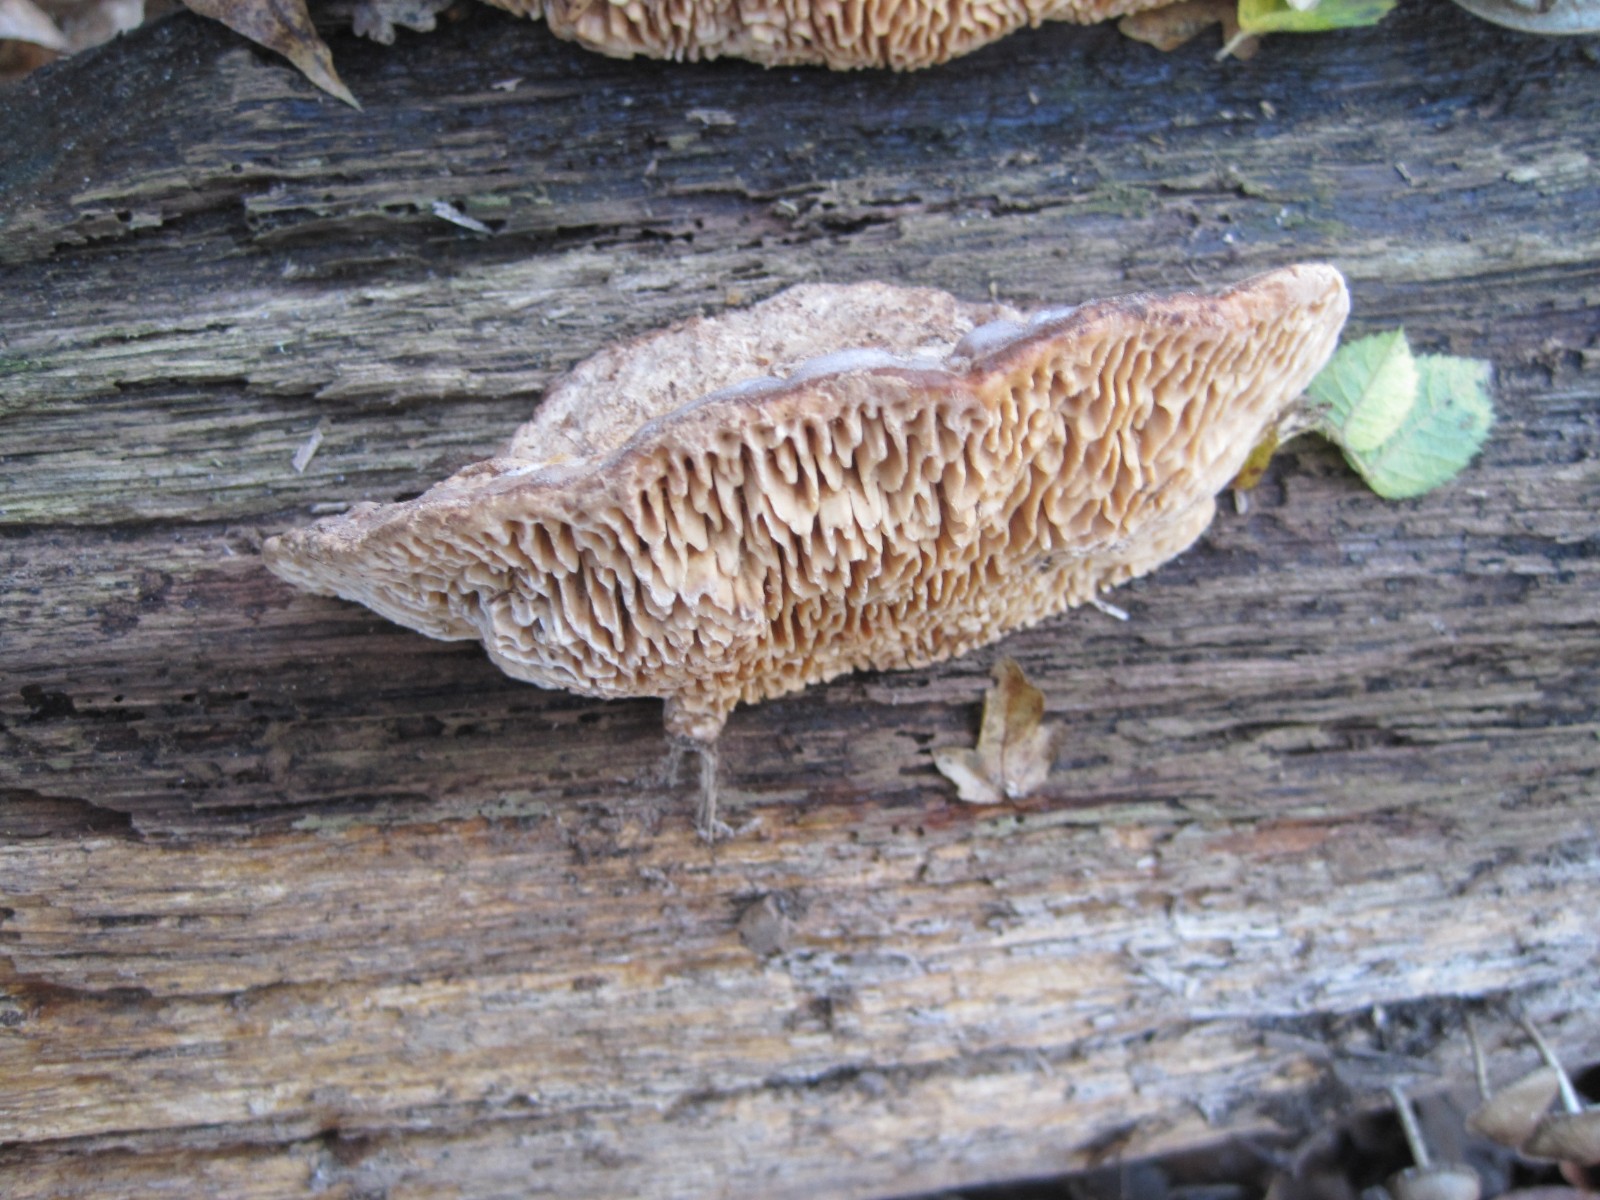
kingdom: Fungi
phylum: Basidiomycota
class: Agaricomycetes
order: Polyporales
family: Fomitopsidaceae
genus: Daedalea
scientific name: Daedalea quercina
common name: ege-labyrintsvamp
